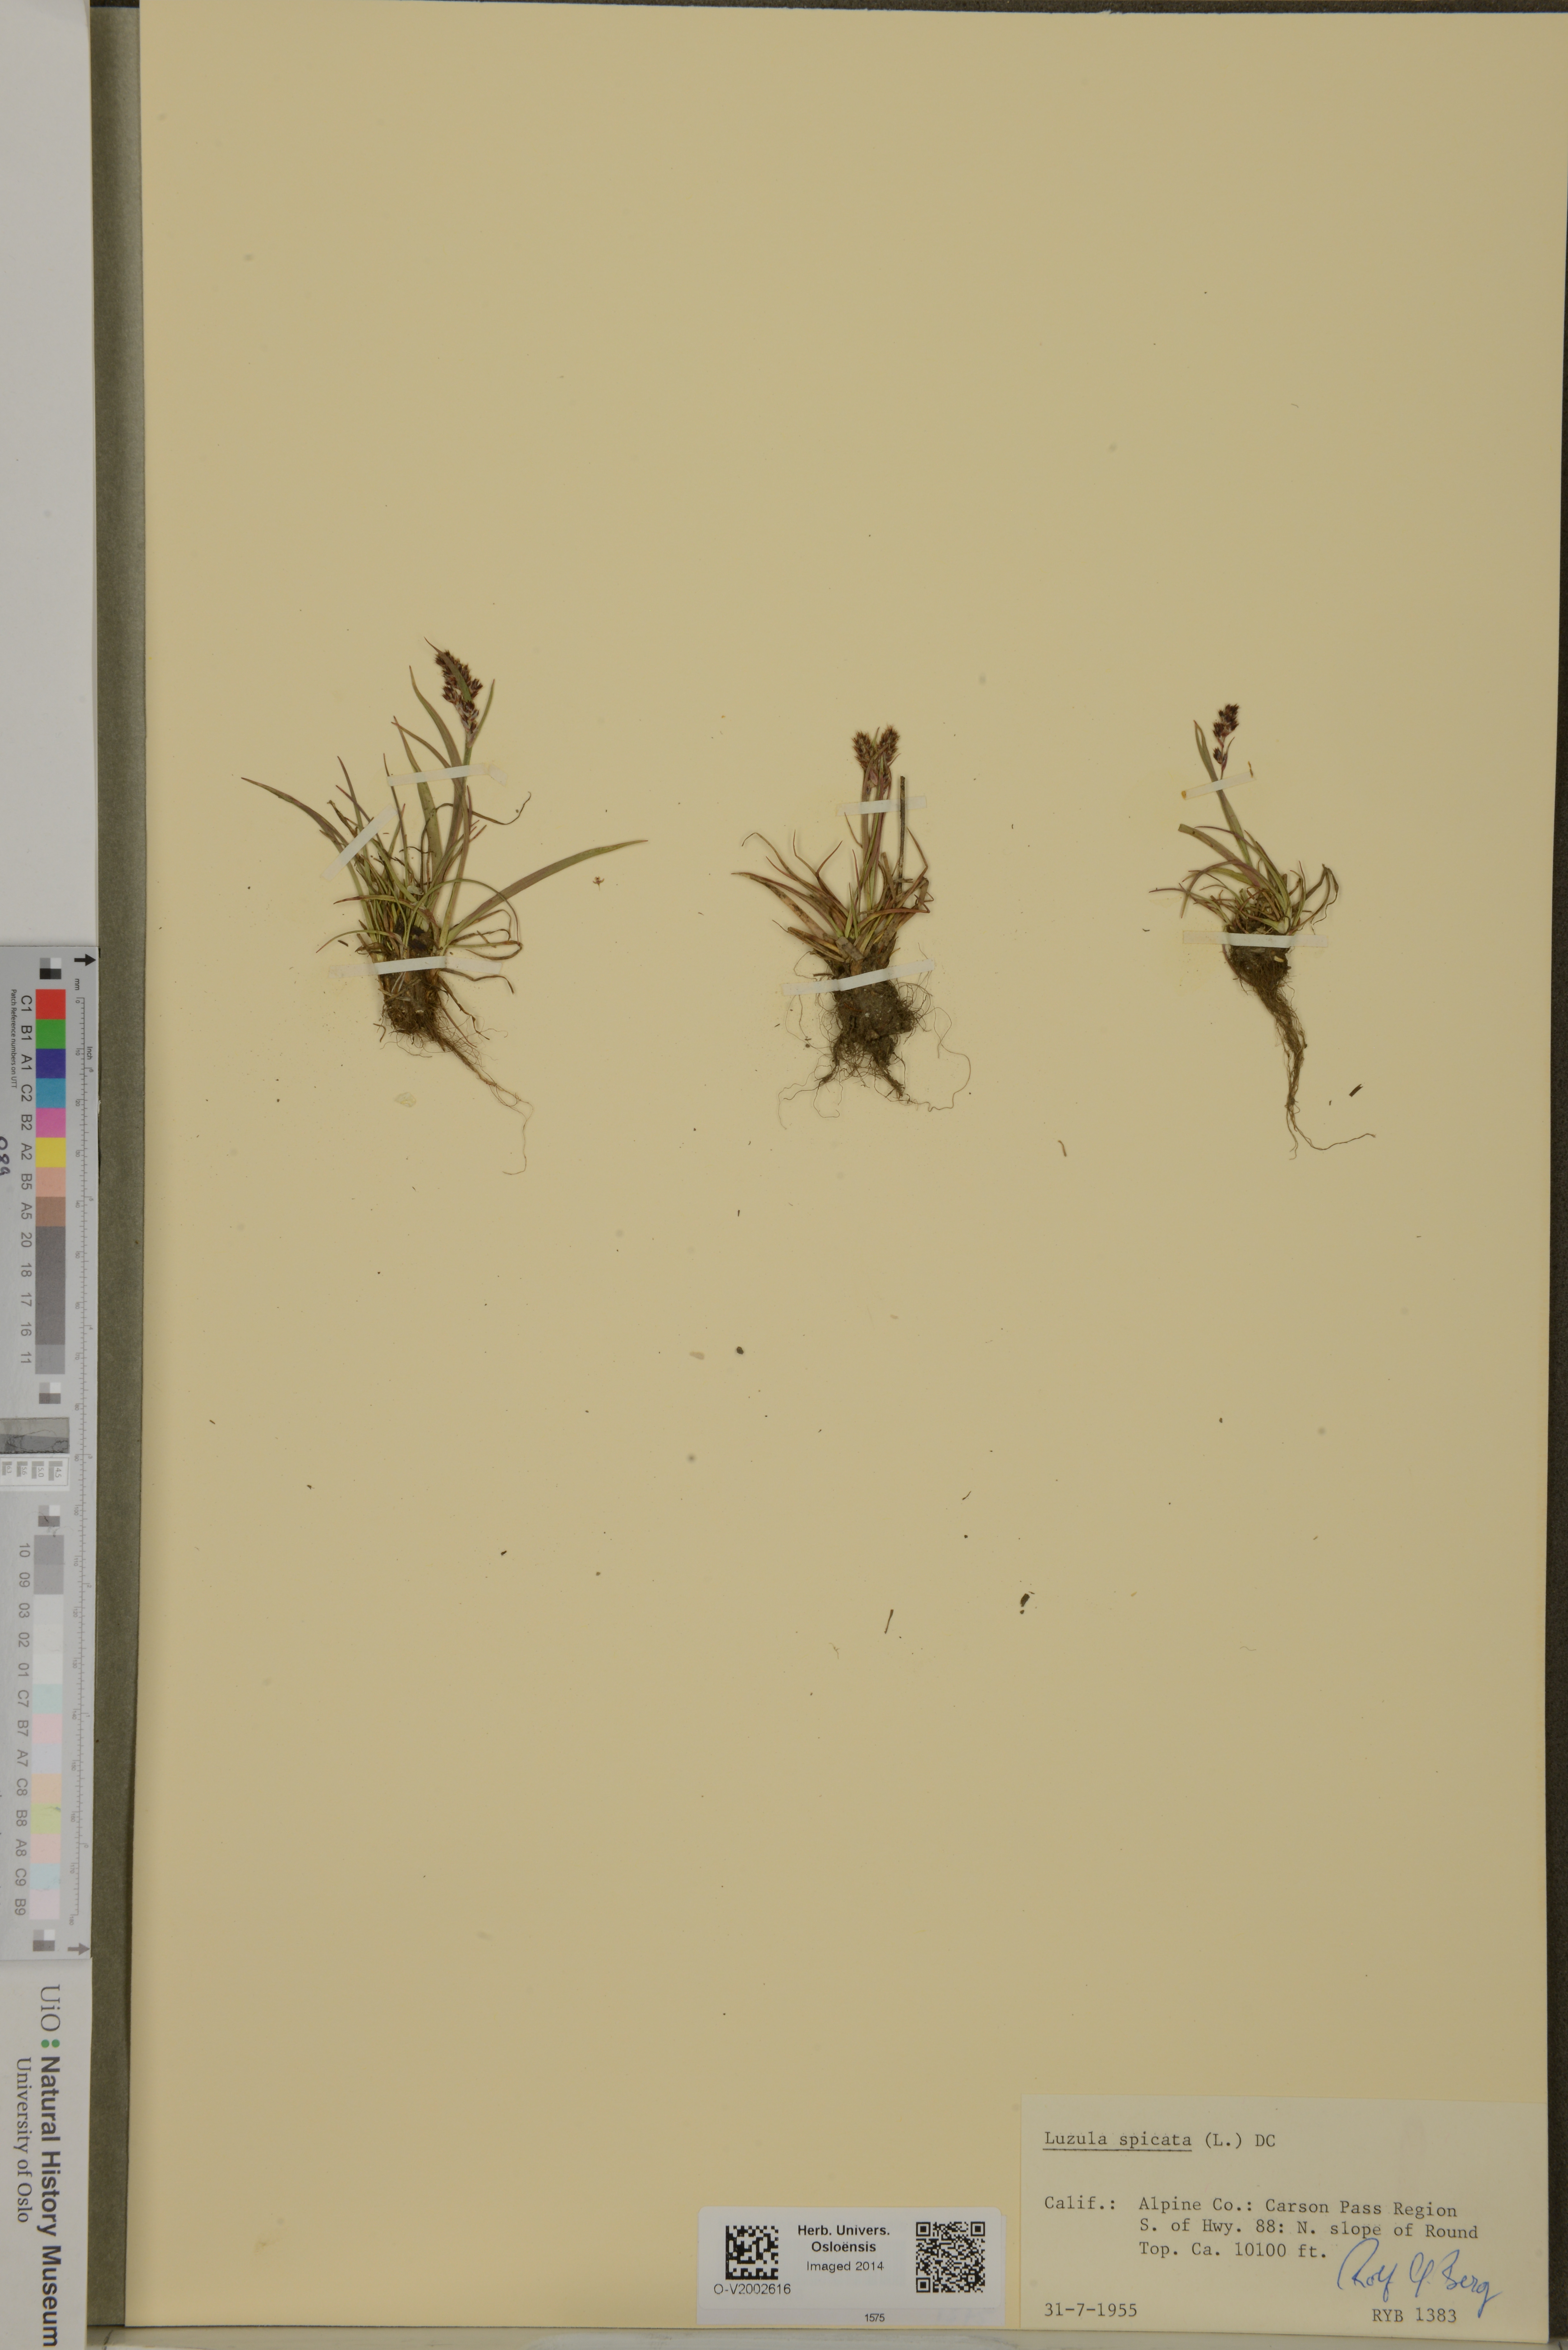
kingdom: Plantae
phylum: Tracheophyta
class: Liliopsida
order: Poales
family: Juncaceae
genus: Luzula
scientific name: Luzula spicata
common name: Spiked wood-rush
